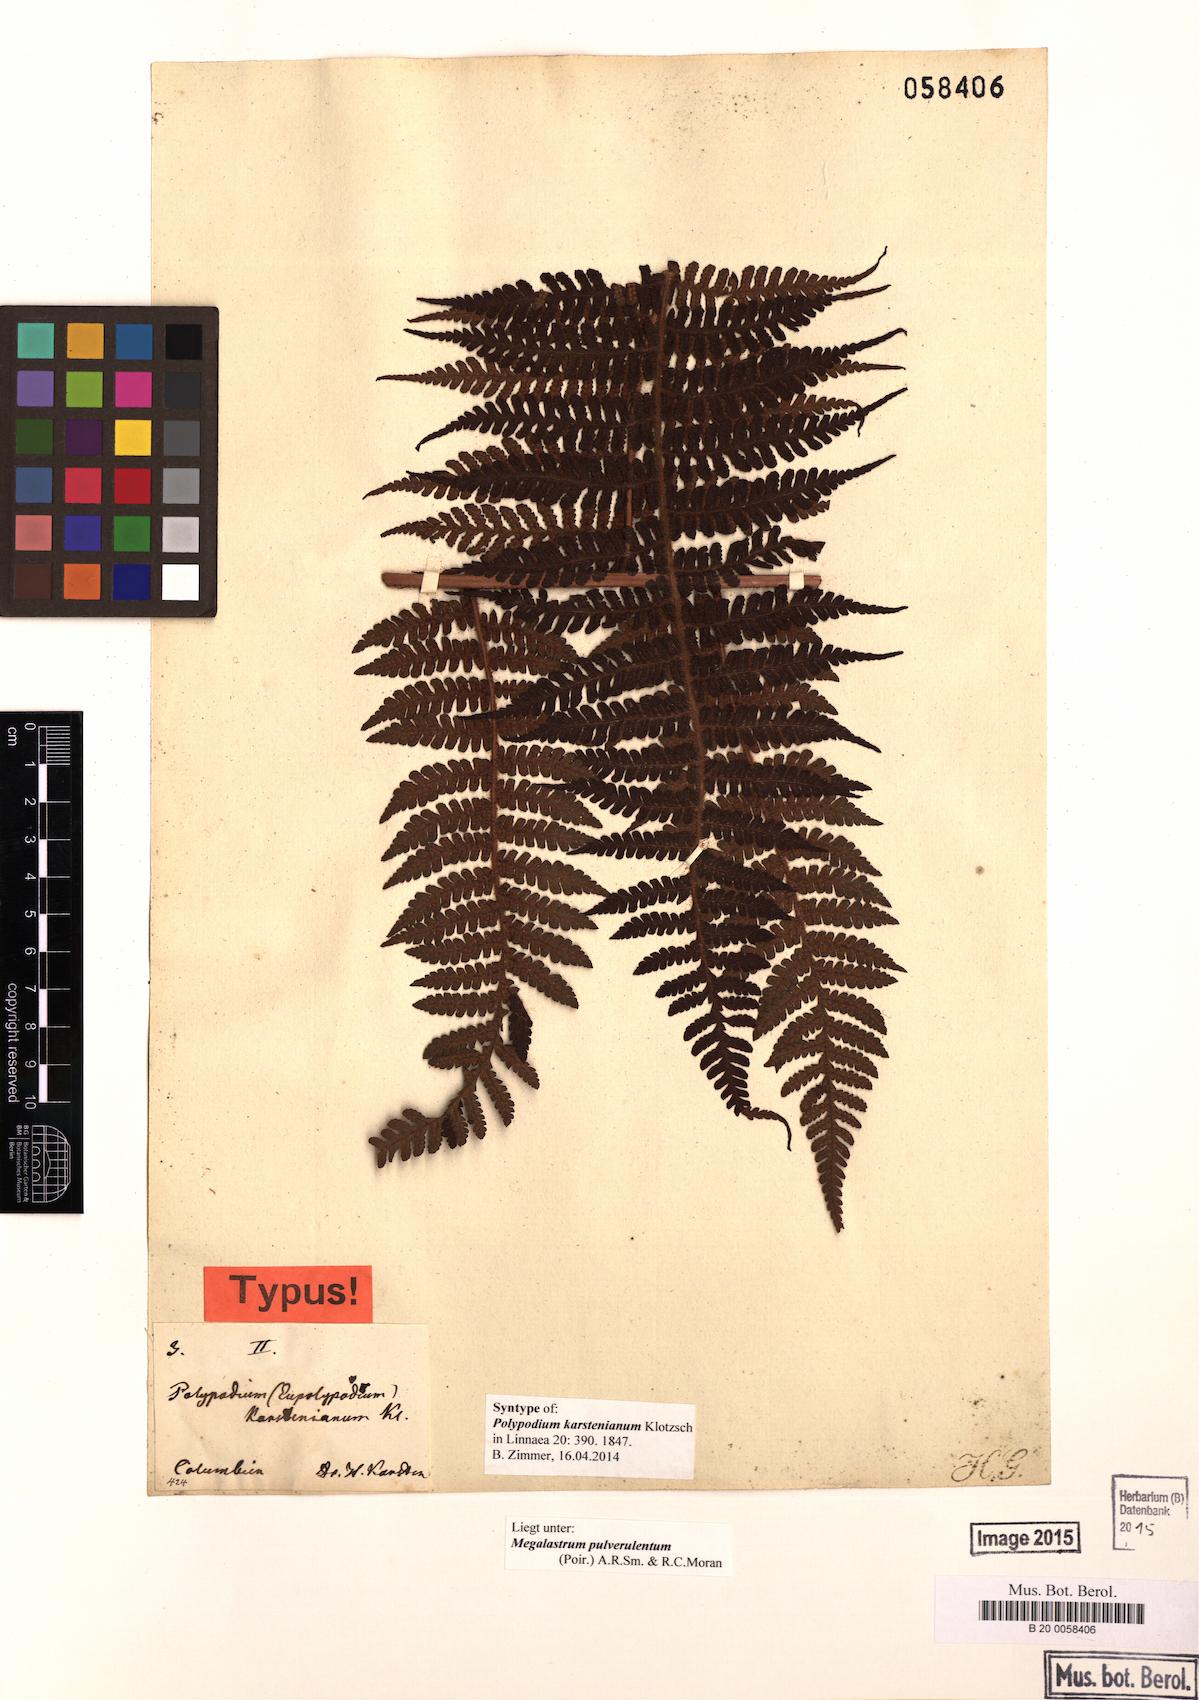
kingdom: Plantae
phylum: Tracheophyta
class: Polypodiopsida
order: Polypodiales
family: Dryopteridaceae
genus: Megalastrum
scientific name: Megalastrum pulverulentum
